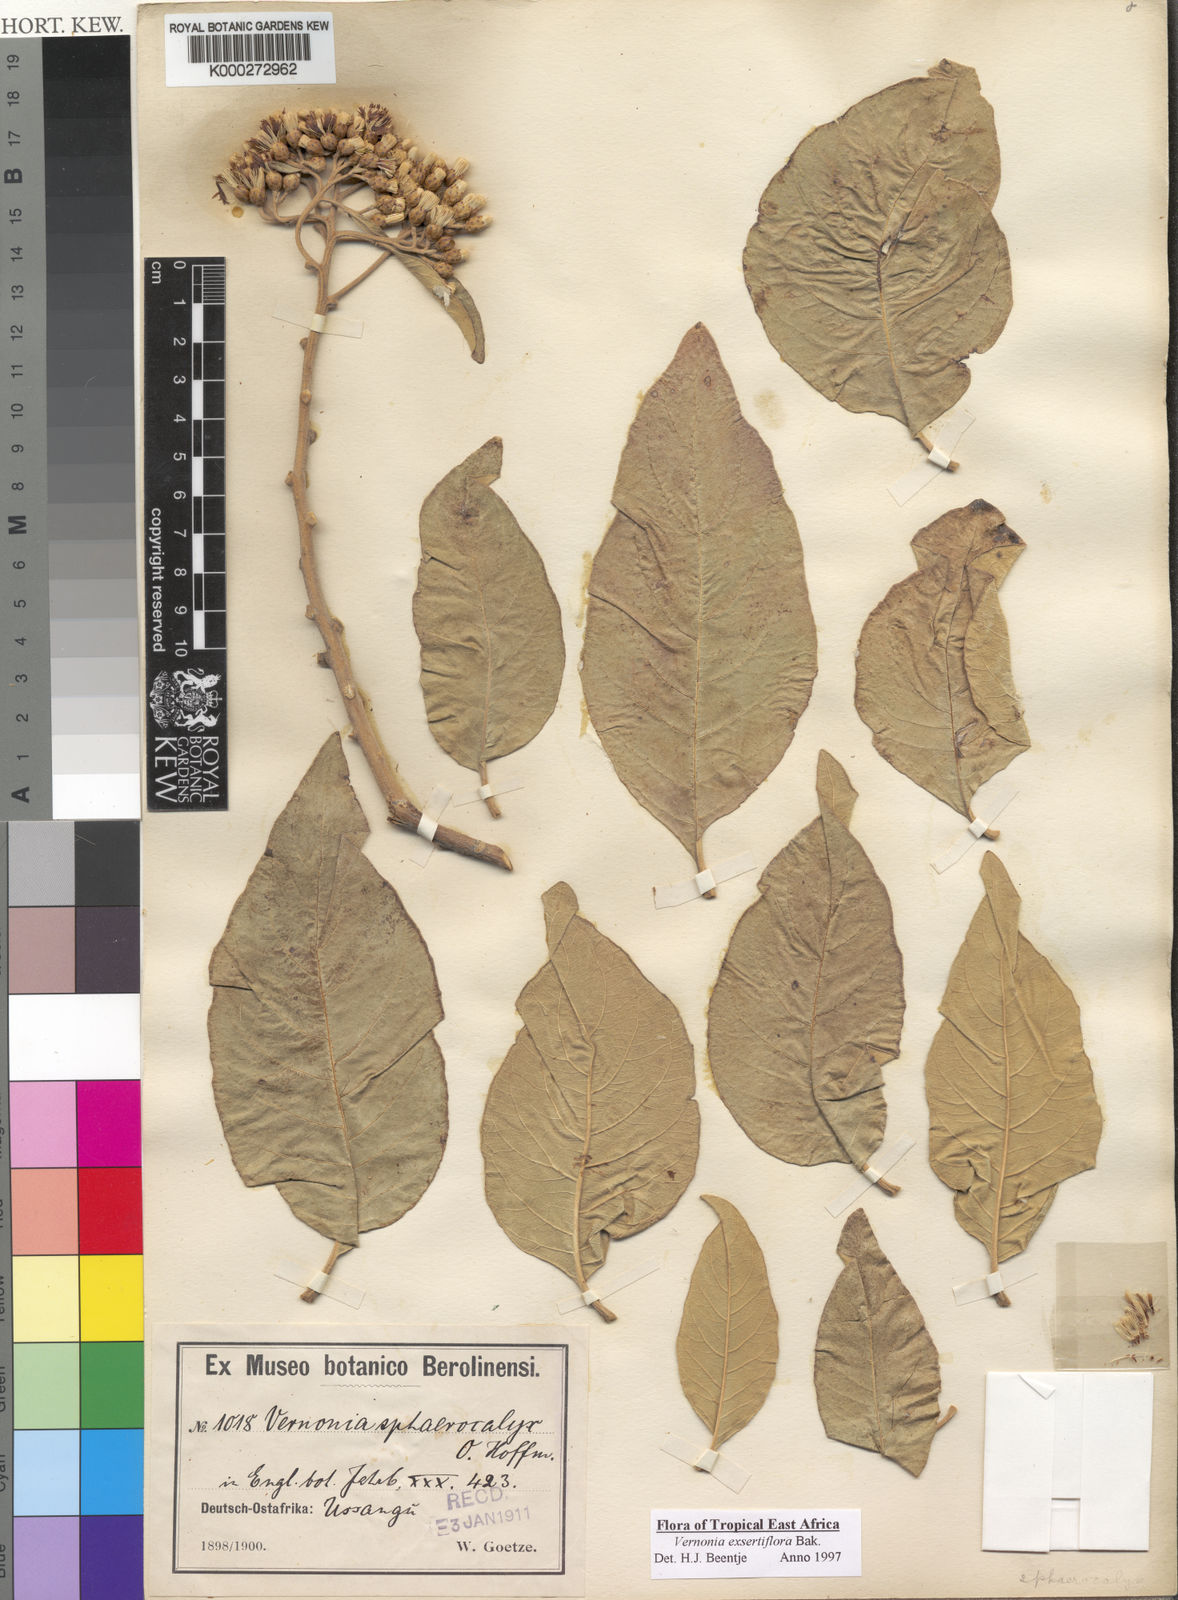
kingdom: Plantae
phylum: Tracheophyta
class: Magnoliopsida
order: Asterales
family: Asteraceae
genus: Gymnanthemum
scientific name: Gymnanthemum exsertiflorum
